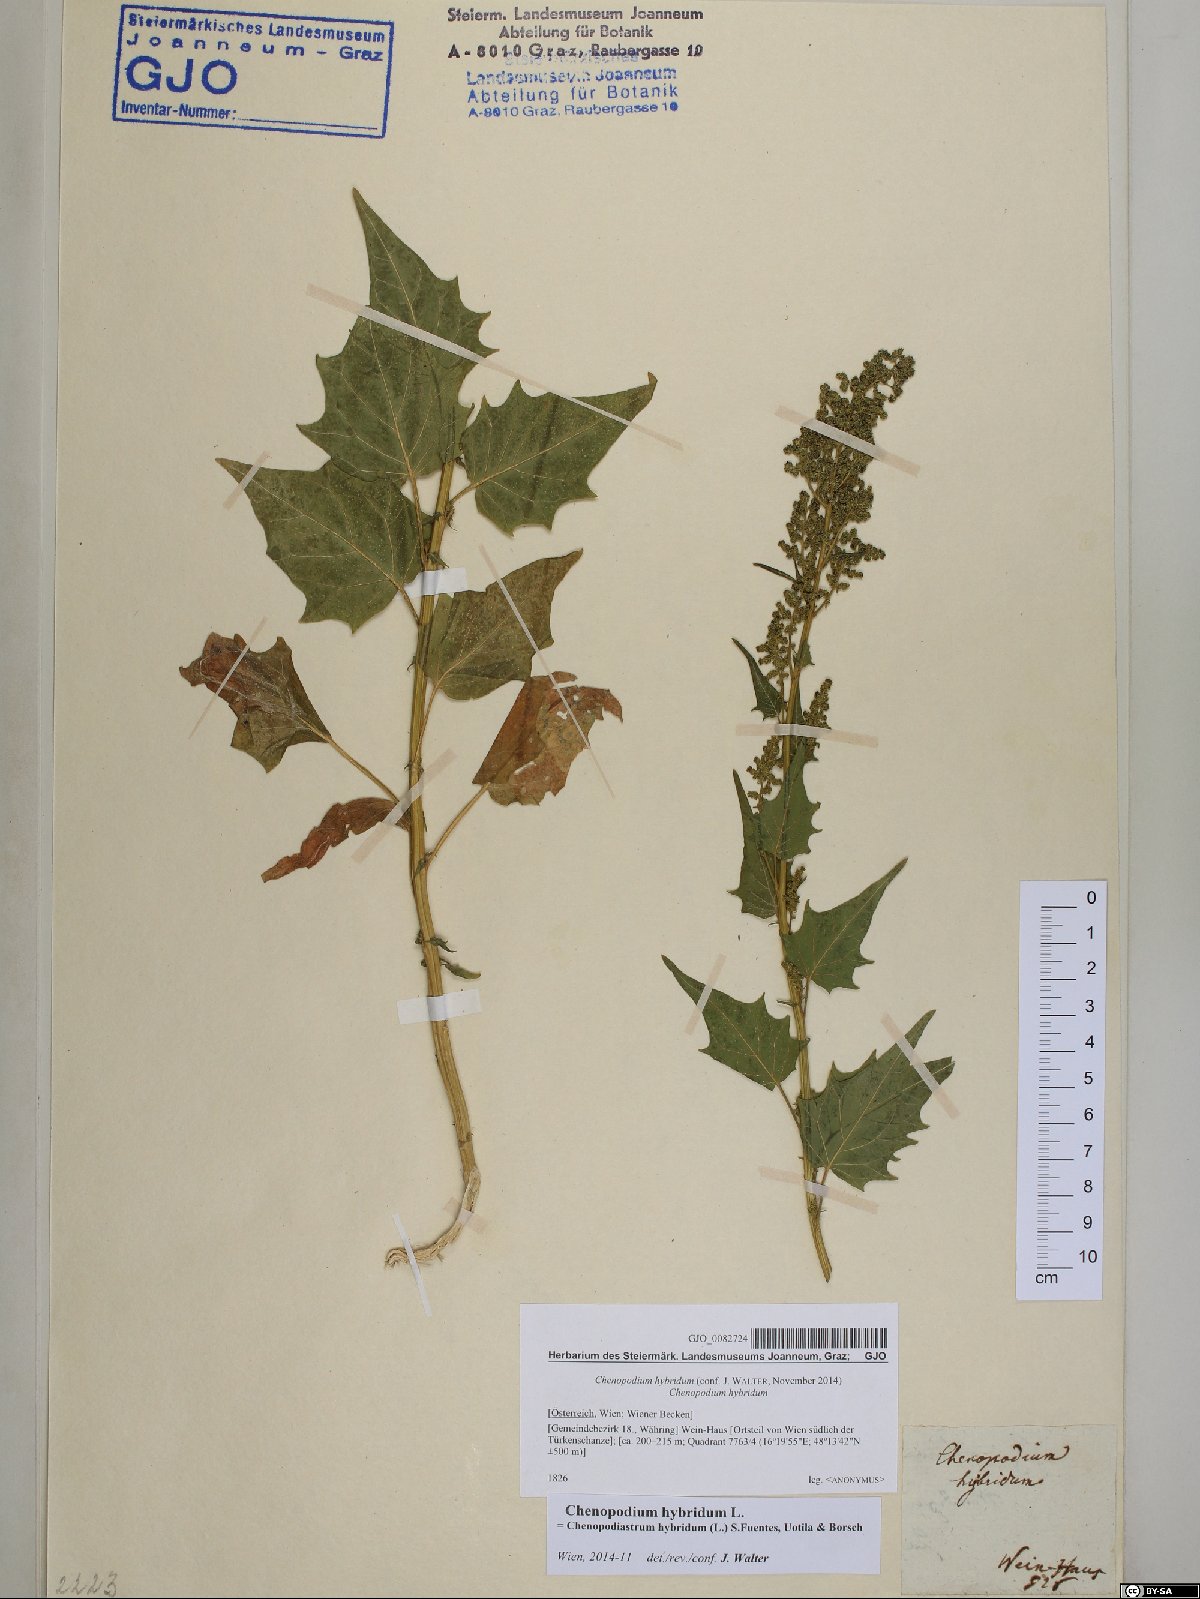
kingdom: Plantae
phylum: Tracheophyta
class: Magnoliopsida
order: Caryophyllales
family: Amaranthaceae
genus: Chenopodiastrum
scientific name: Chenopodiastrum hybridum
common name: Mapleleaf goosefoot
